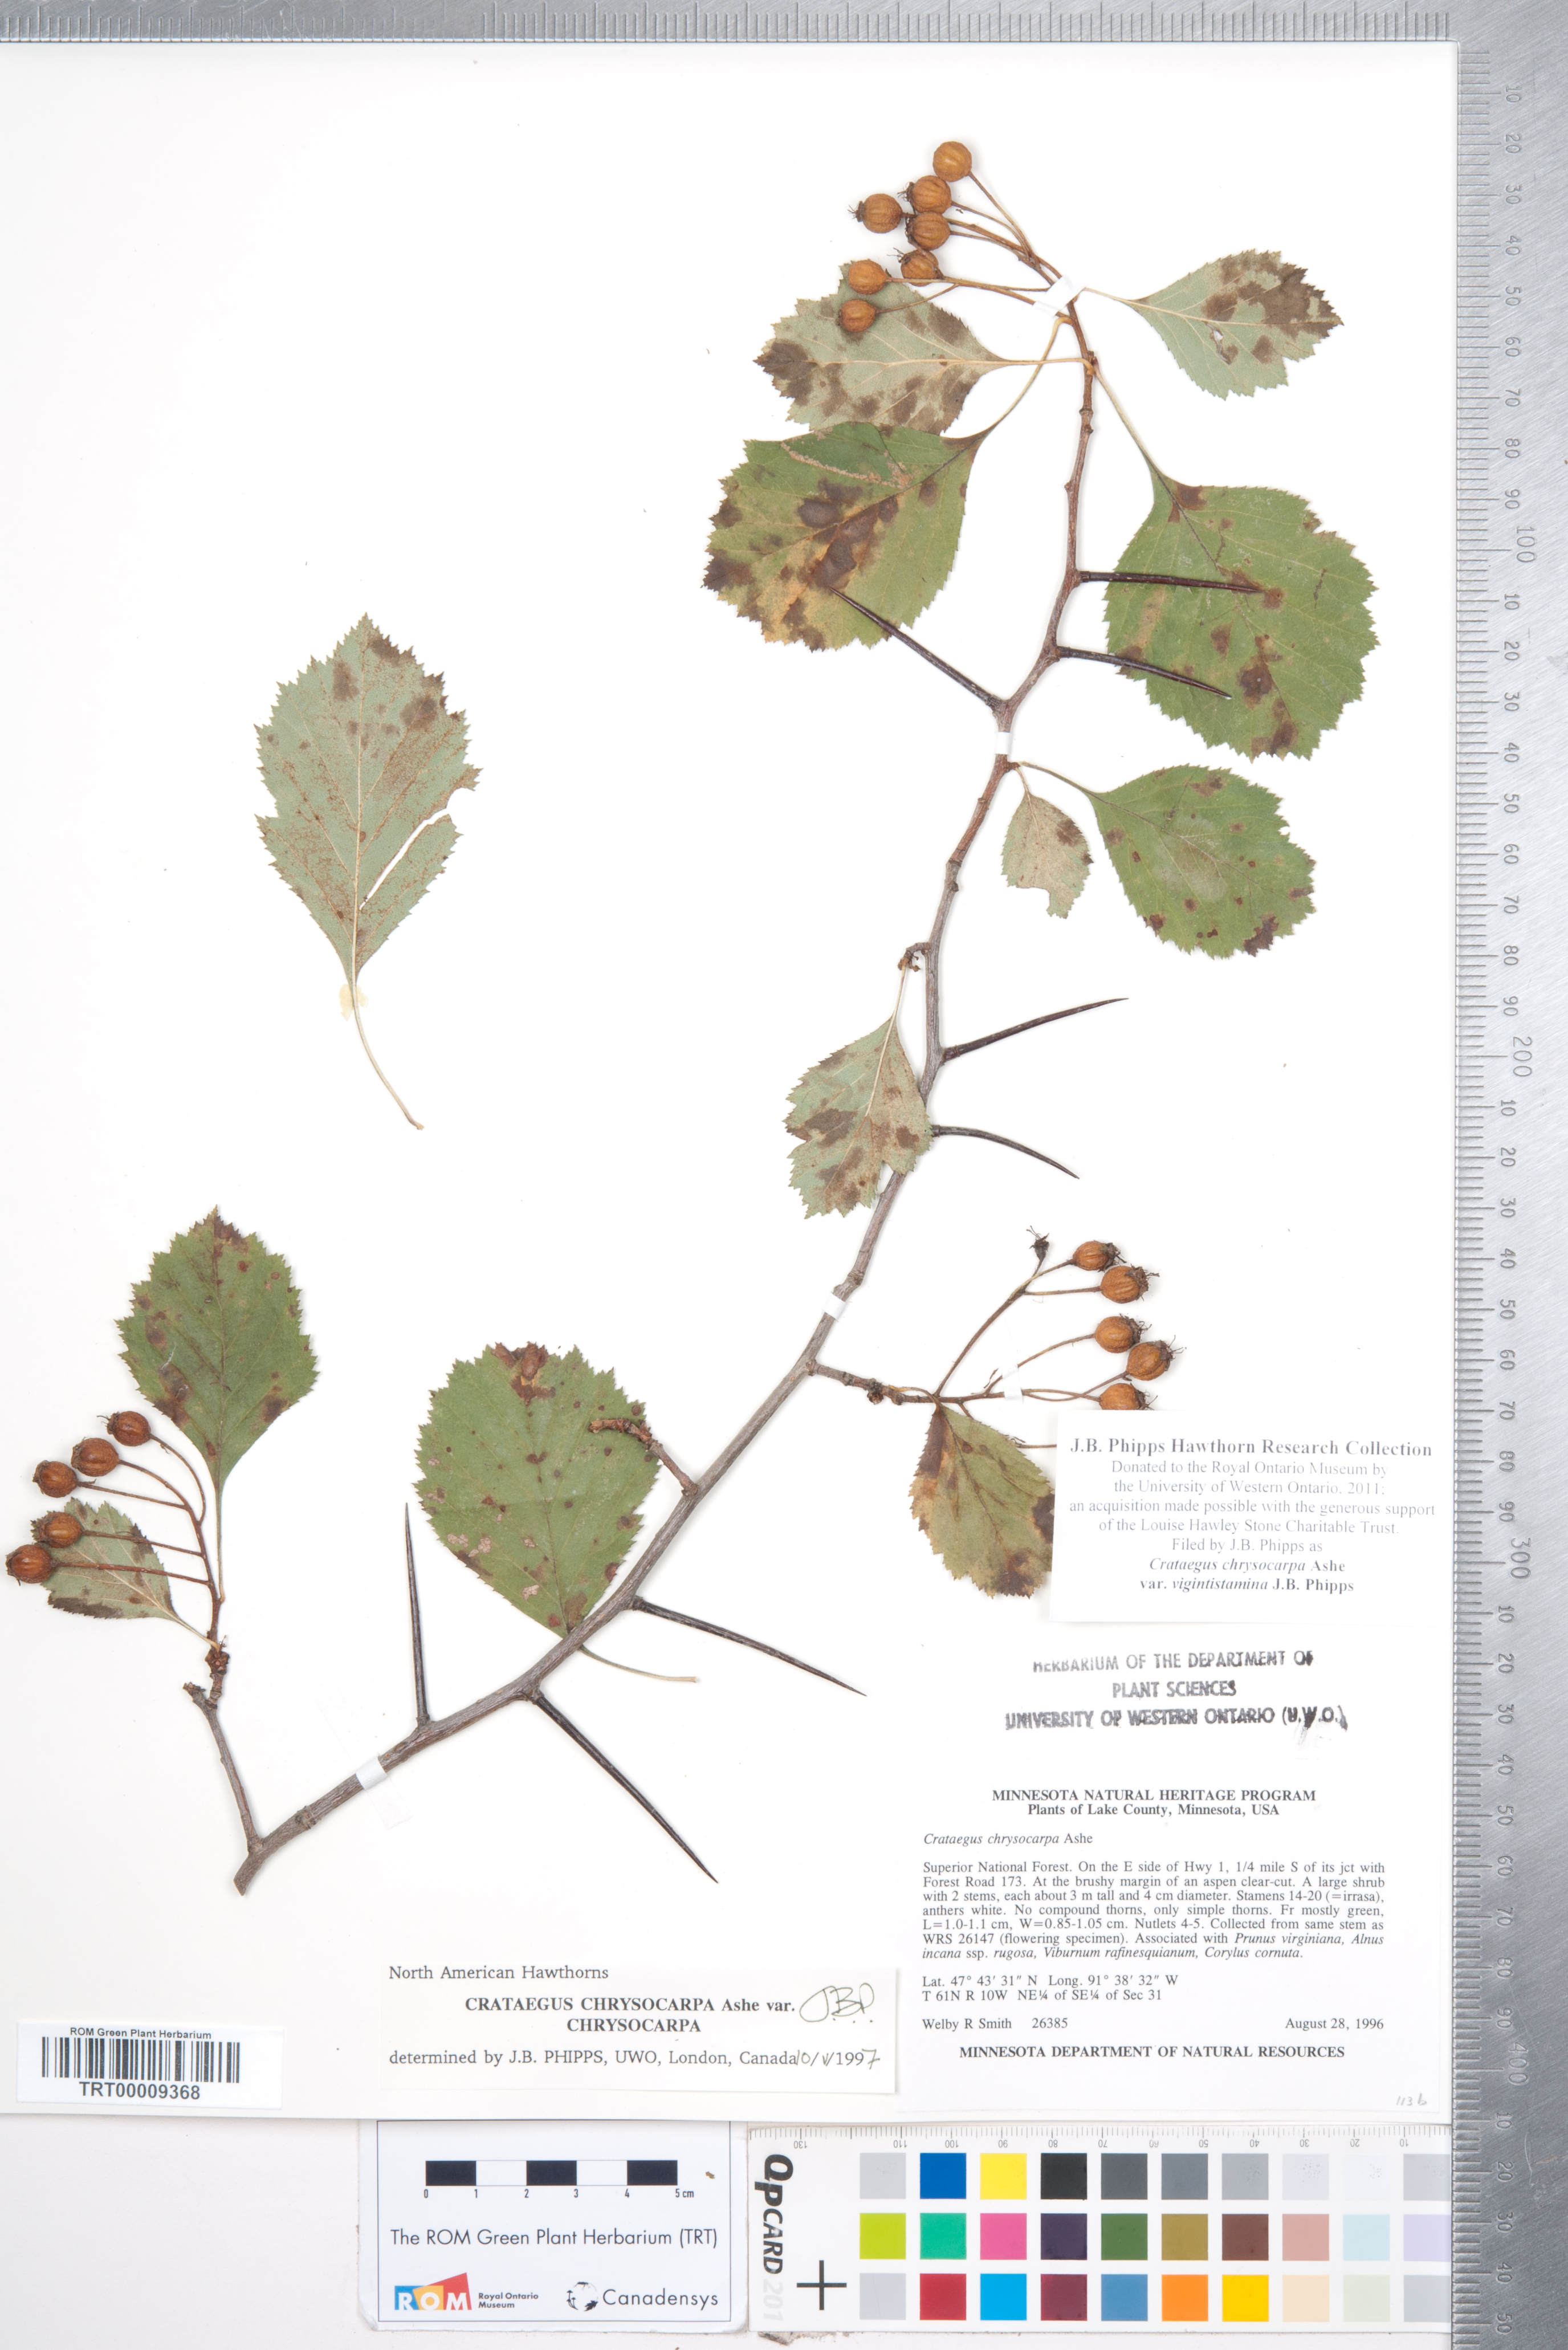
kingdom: Plantae
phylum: Tracheophyta
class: Magnoliopsida
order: Rosales
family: Rosaceae
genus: Crataegus
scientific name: Crataegus chrysocarpa
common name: Fire-berry hawthorn
